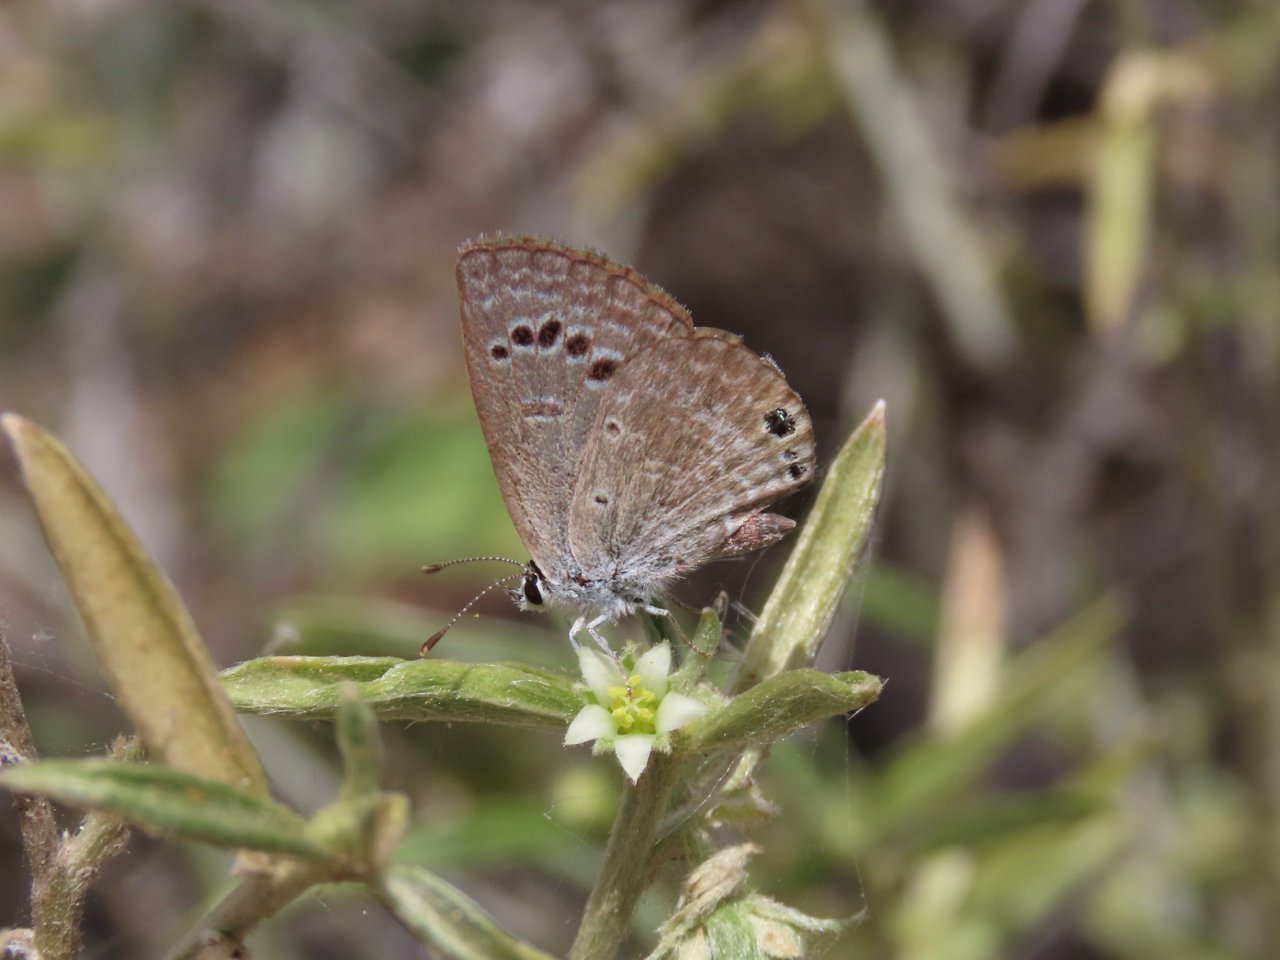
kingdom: Animalia
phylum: Arthropoda
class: Insecta
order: Lepidoptera
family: Lycaenidae
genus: Echinargus
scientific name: Echinargus isola
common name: Reakirt's Blue
